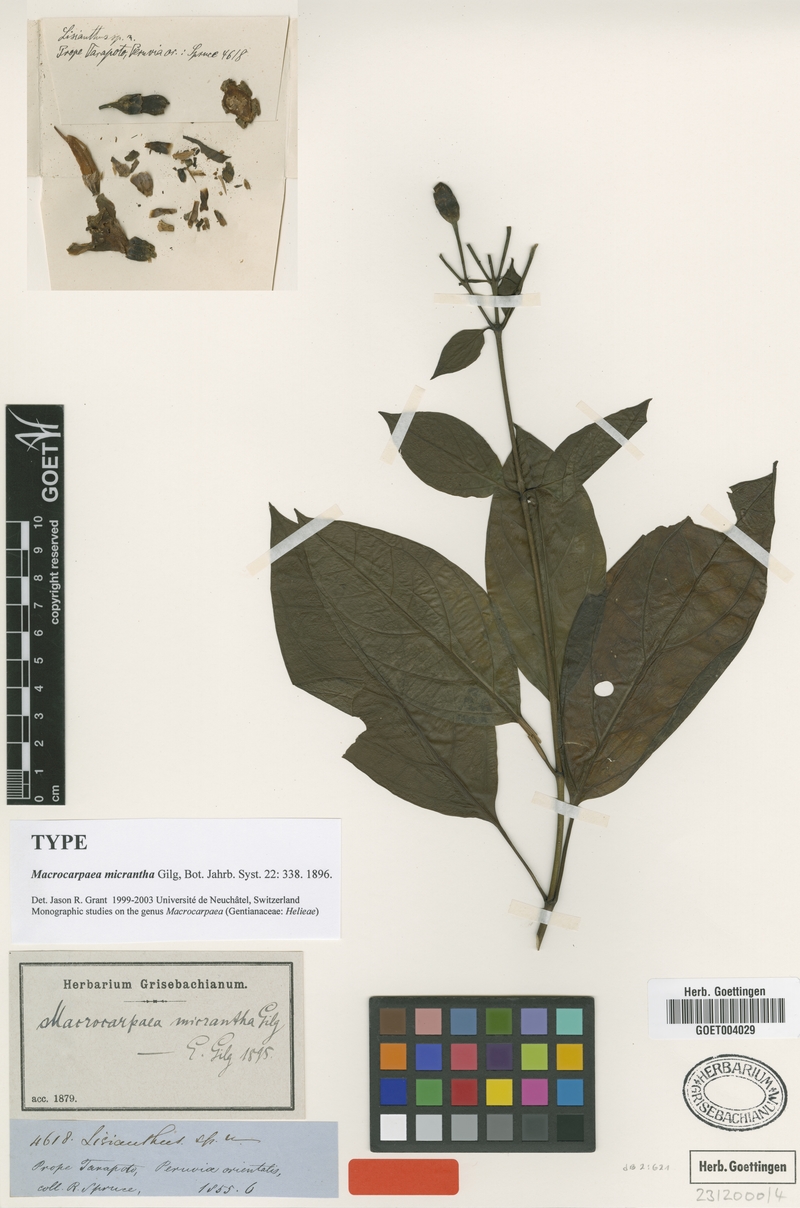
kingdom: Plantae
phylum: Tracheophyta
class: Magnoliopsida
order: Gentianales
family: Gentianaceae
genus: Macrocarpaea
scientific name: Macrocarpaea micrantha
